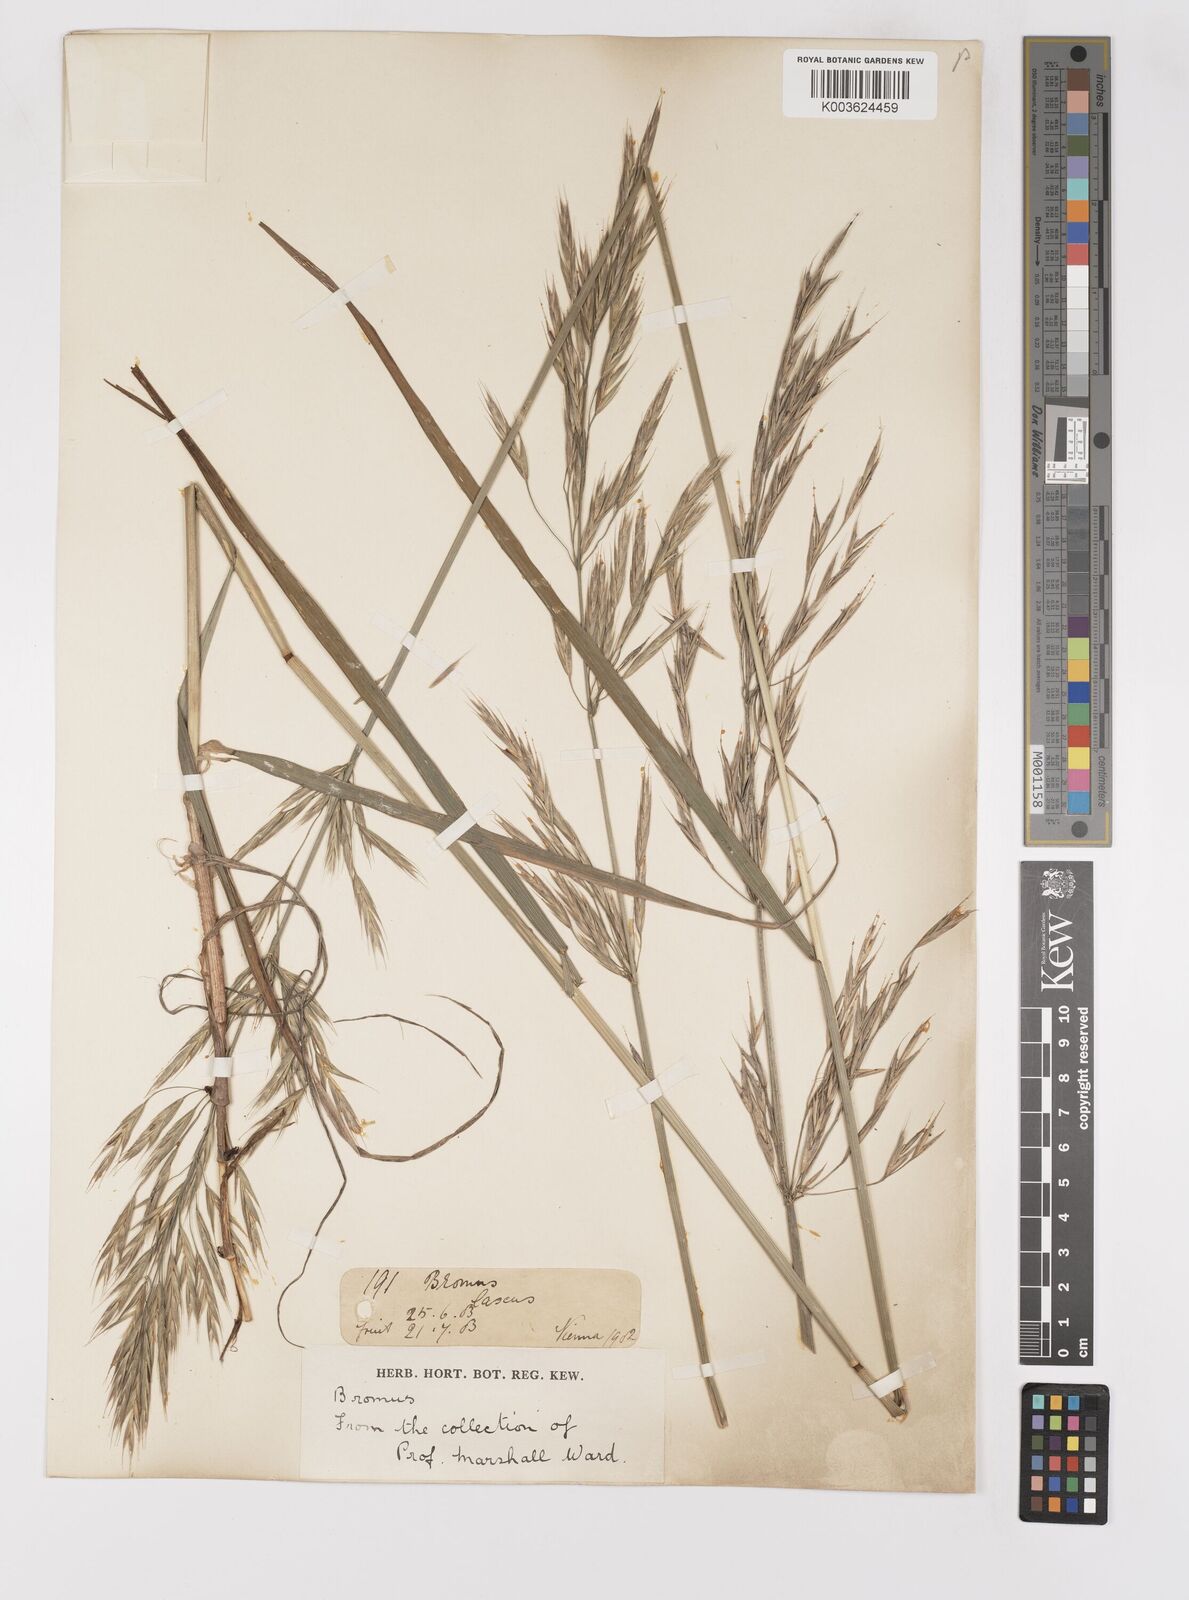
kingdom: Plantae
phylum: Tracheophyta
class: Liliopsida
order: Poales
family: Poaceae
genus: Bromus
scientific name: Bromus
